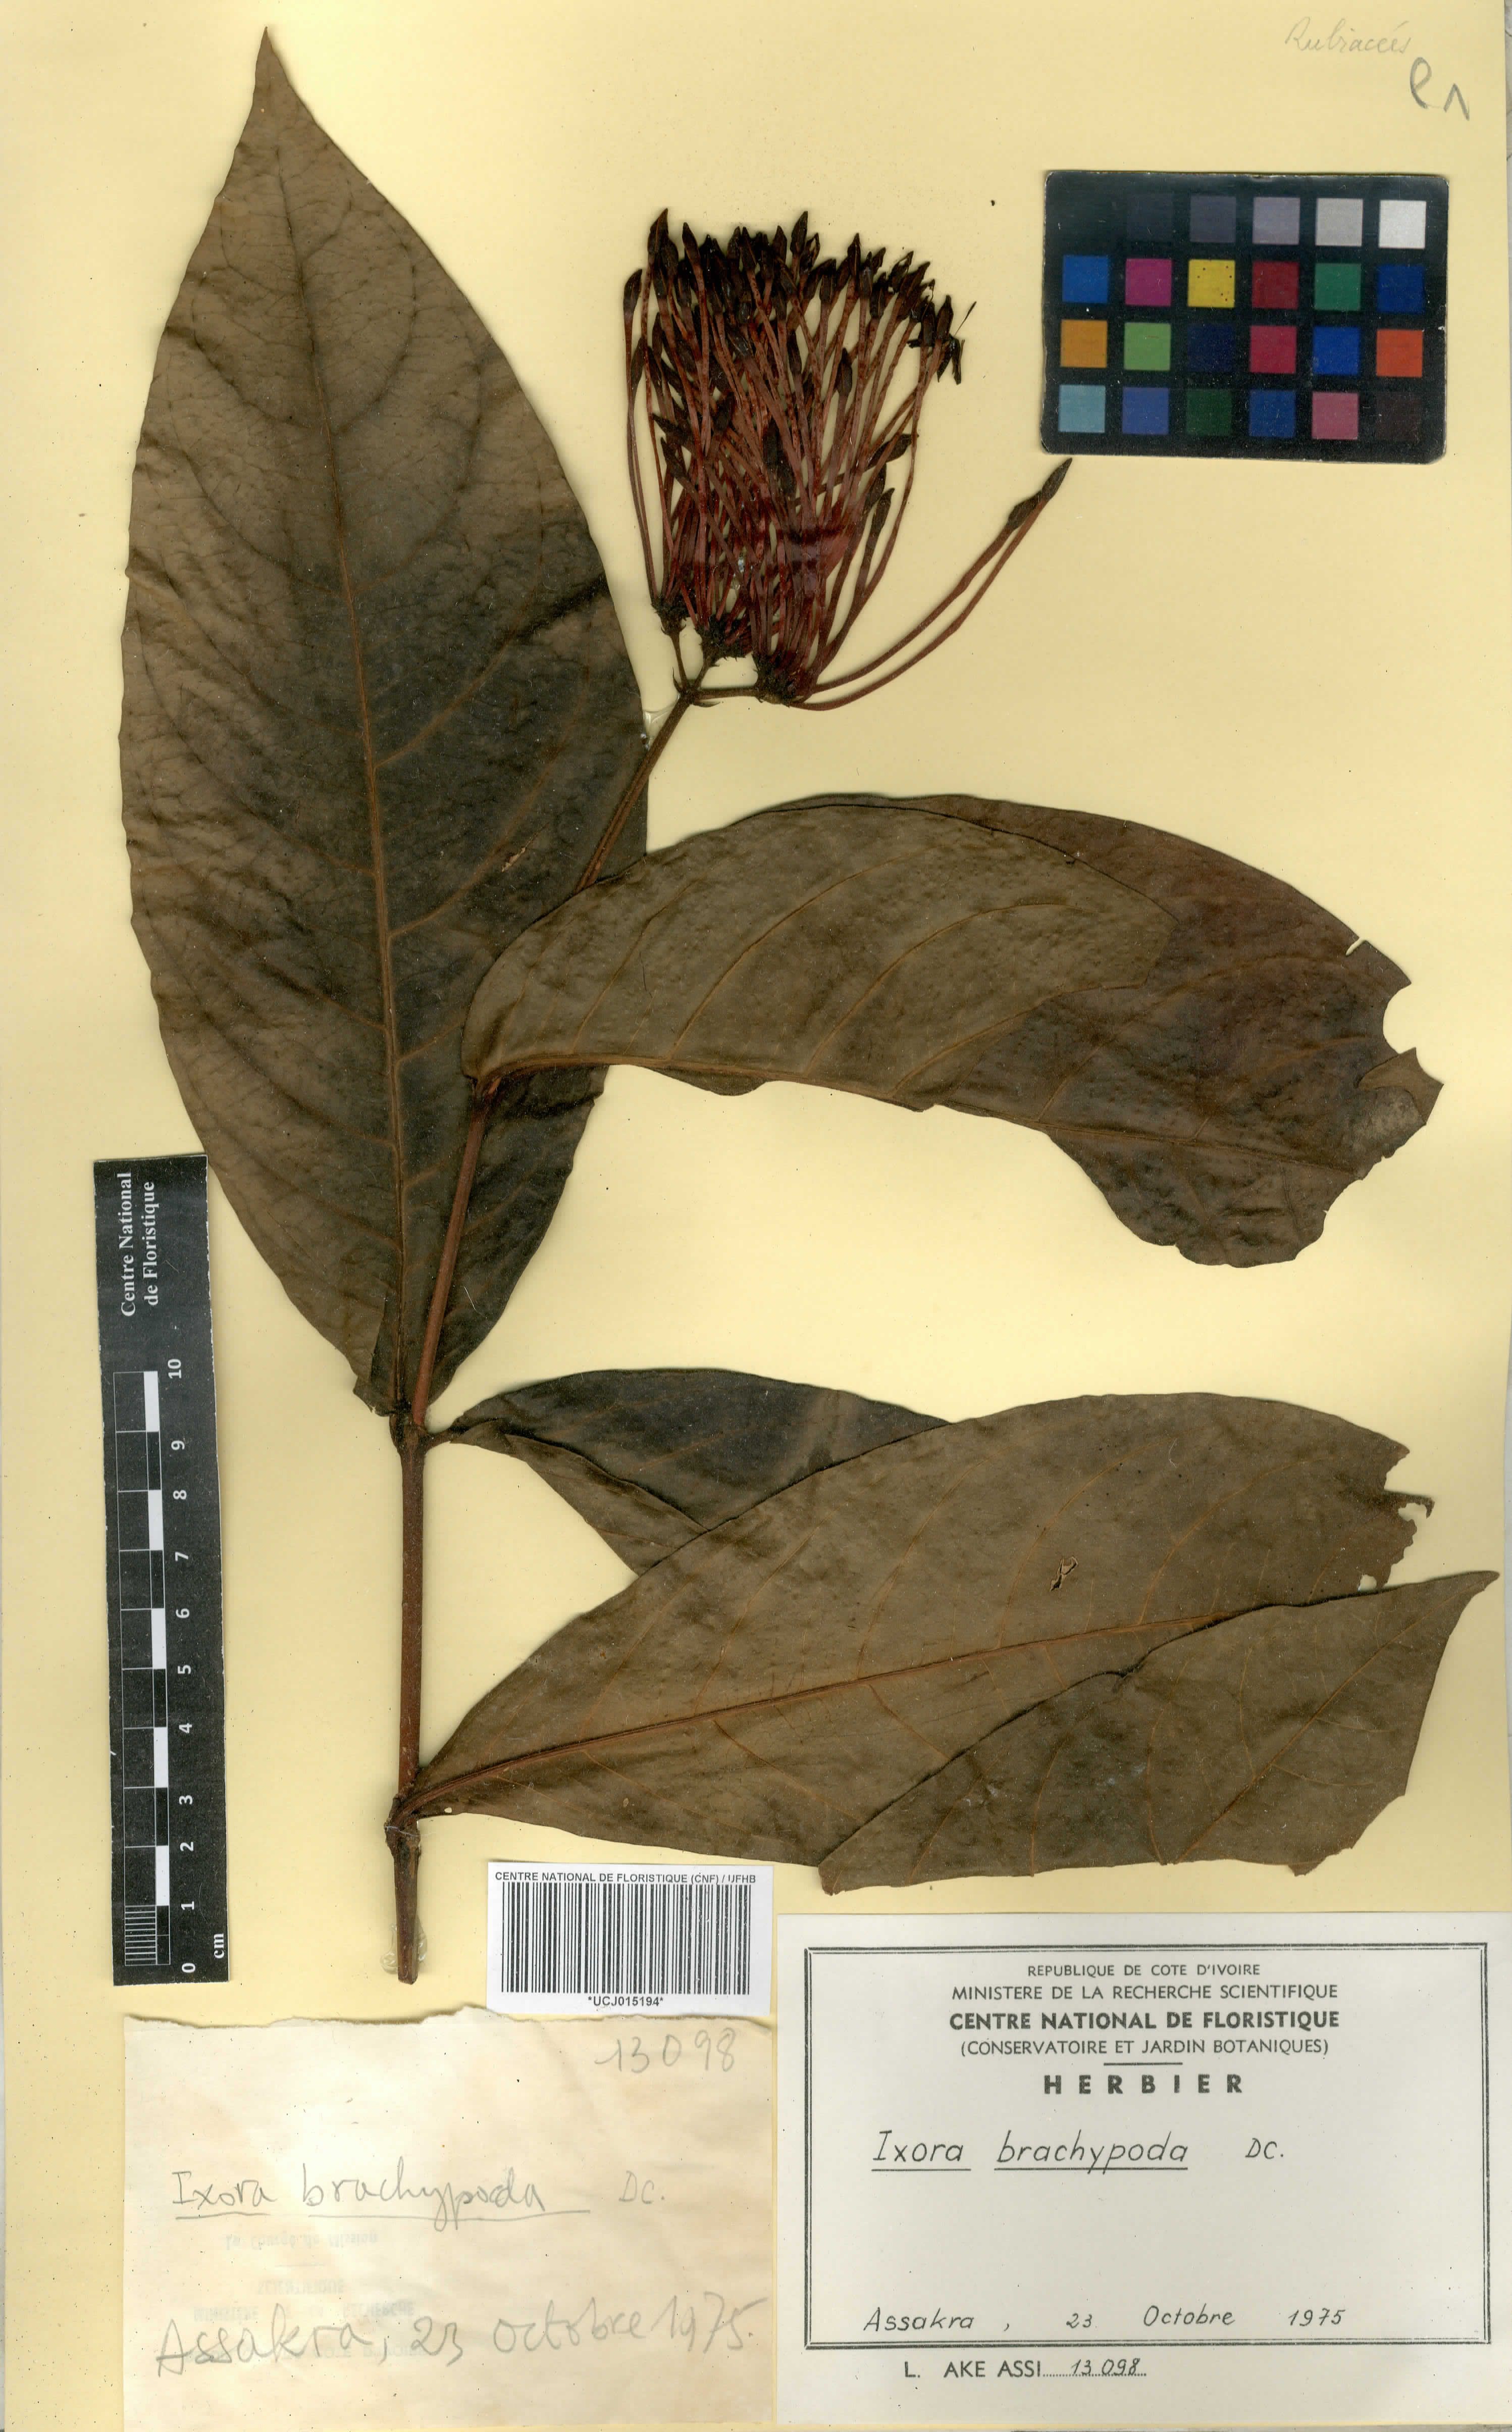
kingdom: Plantae
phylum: Tracheophyta
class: Magnoliopsida
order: Gentianales
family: Rubiaceae
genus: Ixora
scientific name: Ixora brachypoda
